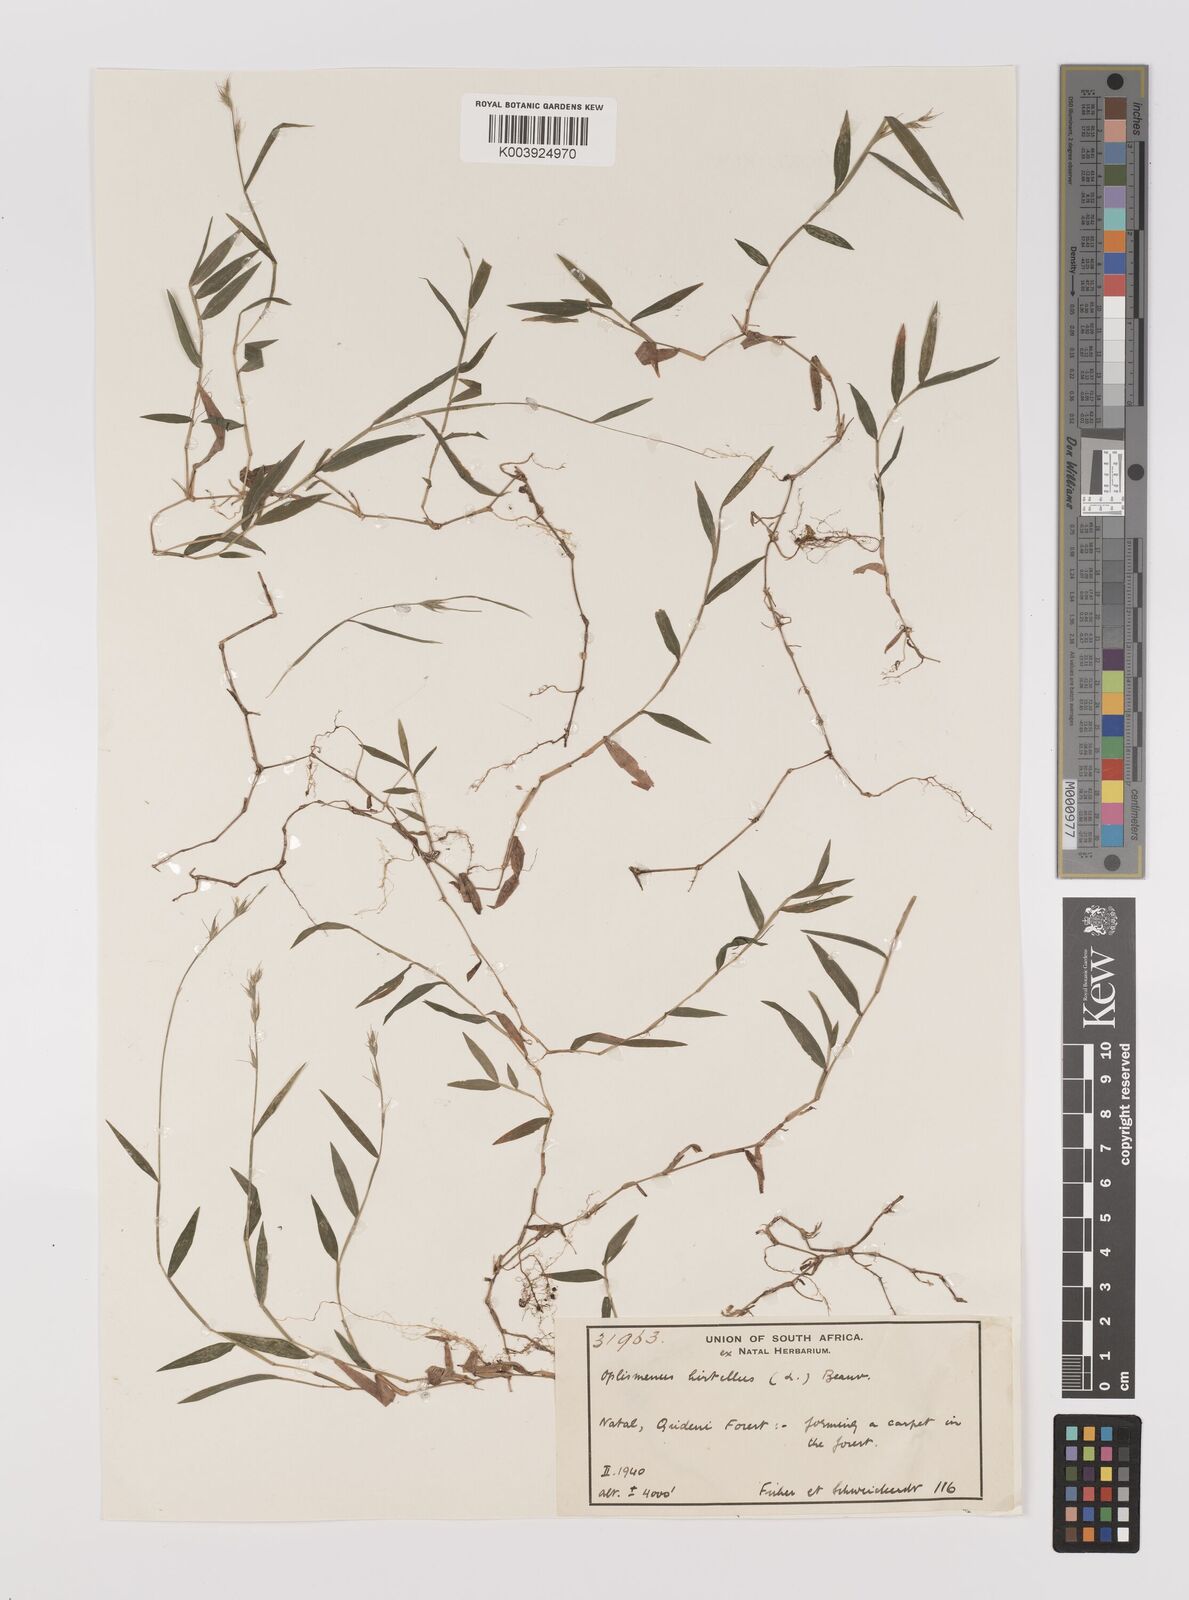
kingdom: Plantae
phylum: Tracheophyta
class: Liliopsida
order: Poales
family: Poaceae
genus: Oplismenus
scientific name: Oplismenus hirtellus
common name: Basketgrass
